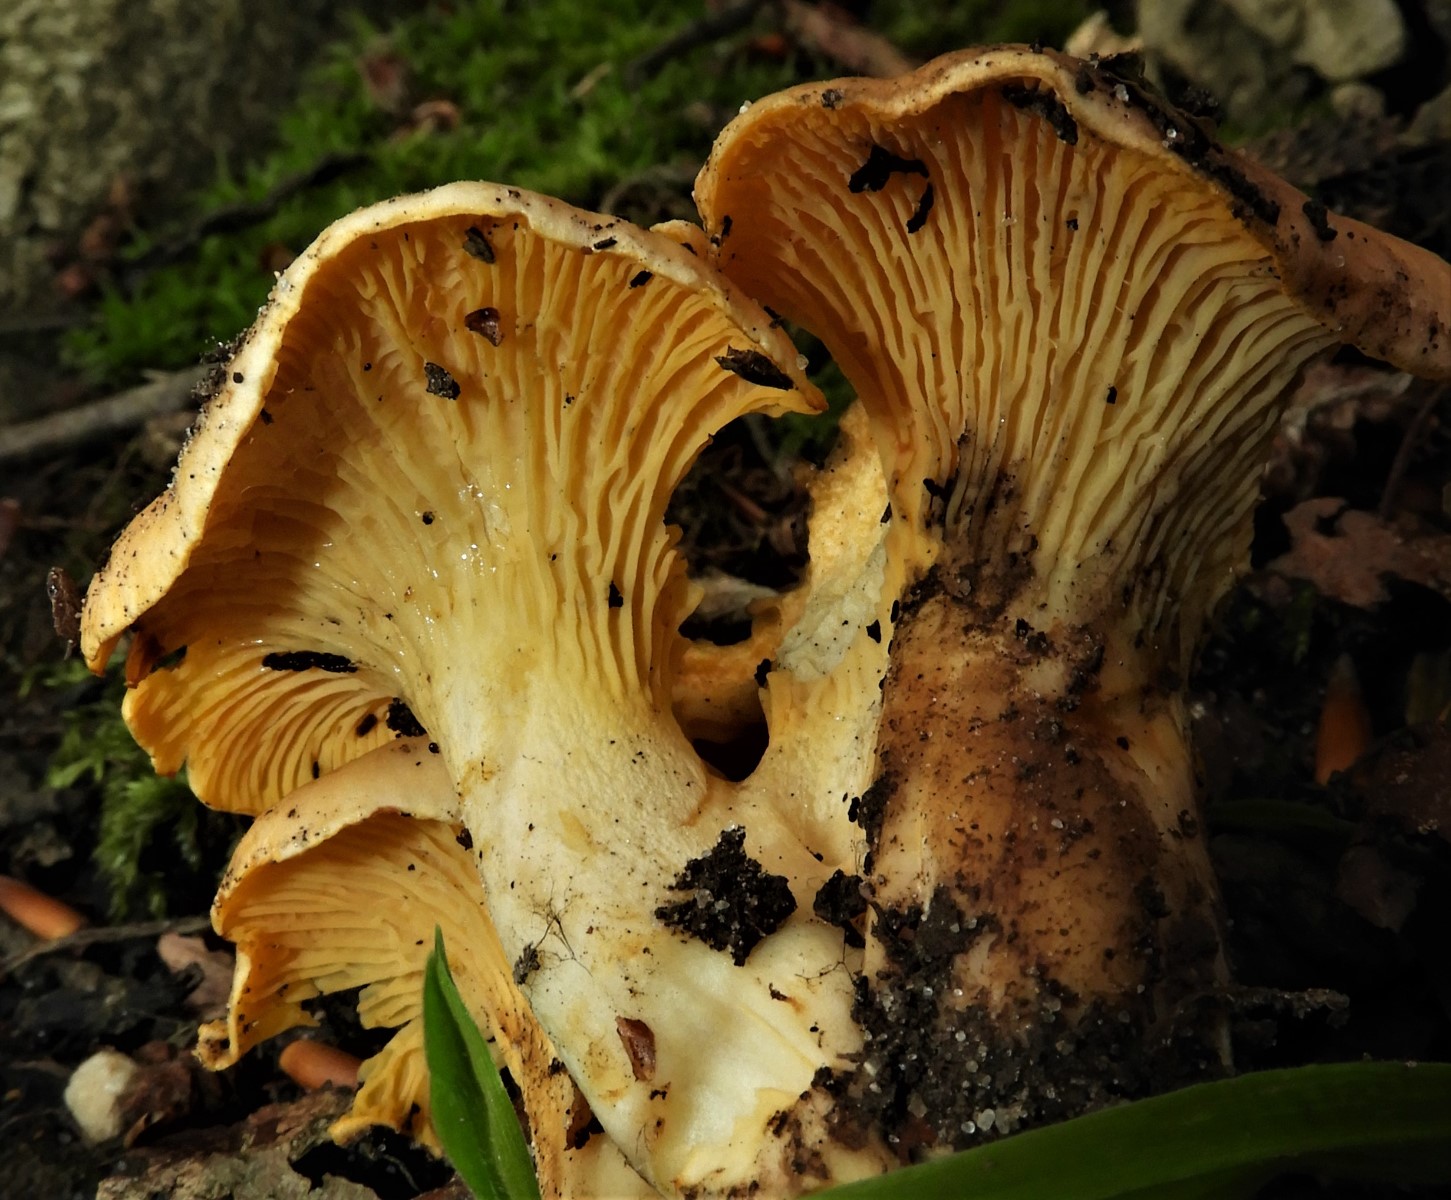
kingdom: Fungi
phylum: Basidiomycota
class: Agaricomycetes
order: Cantharellales
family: Hydnaceae
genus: Cantharellus
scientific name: Cantharellus cibarius
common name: almindelig kantarel
